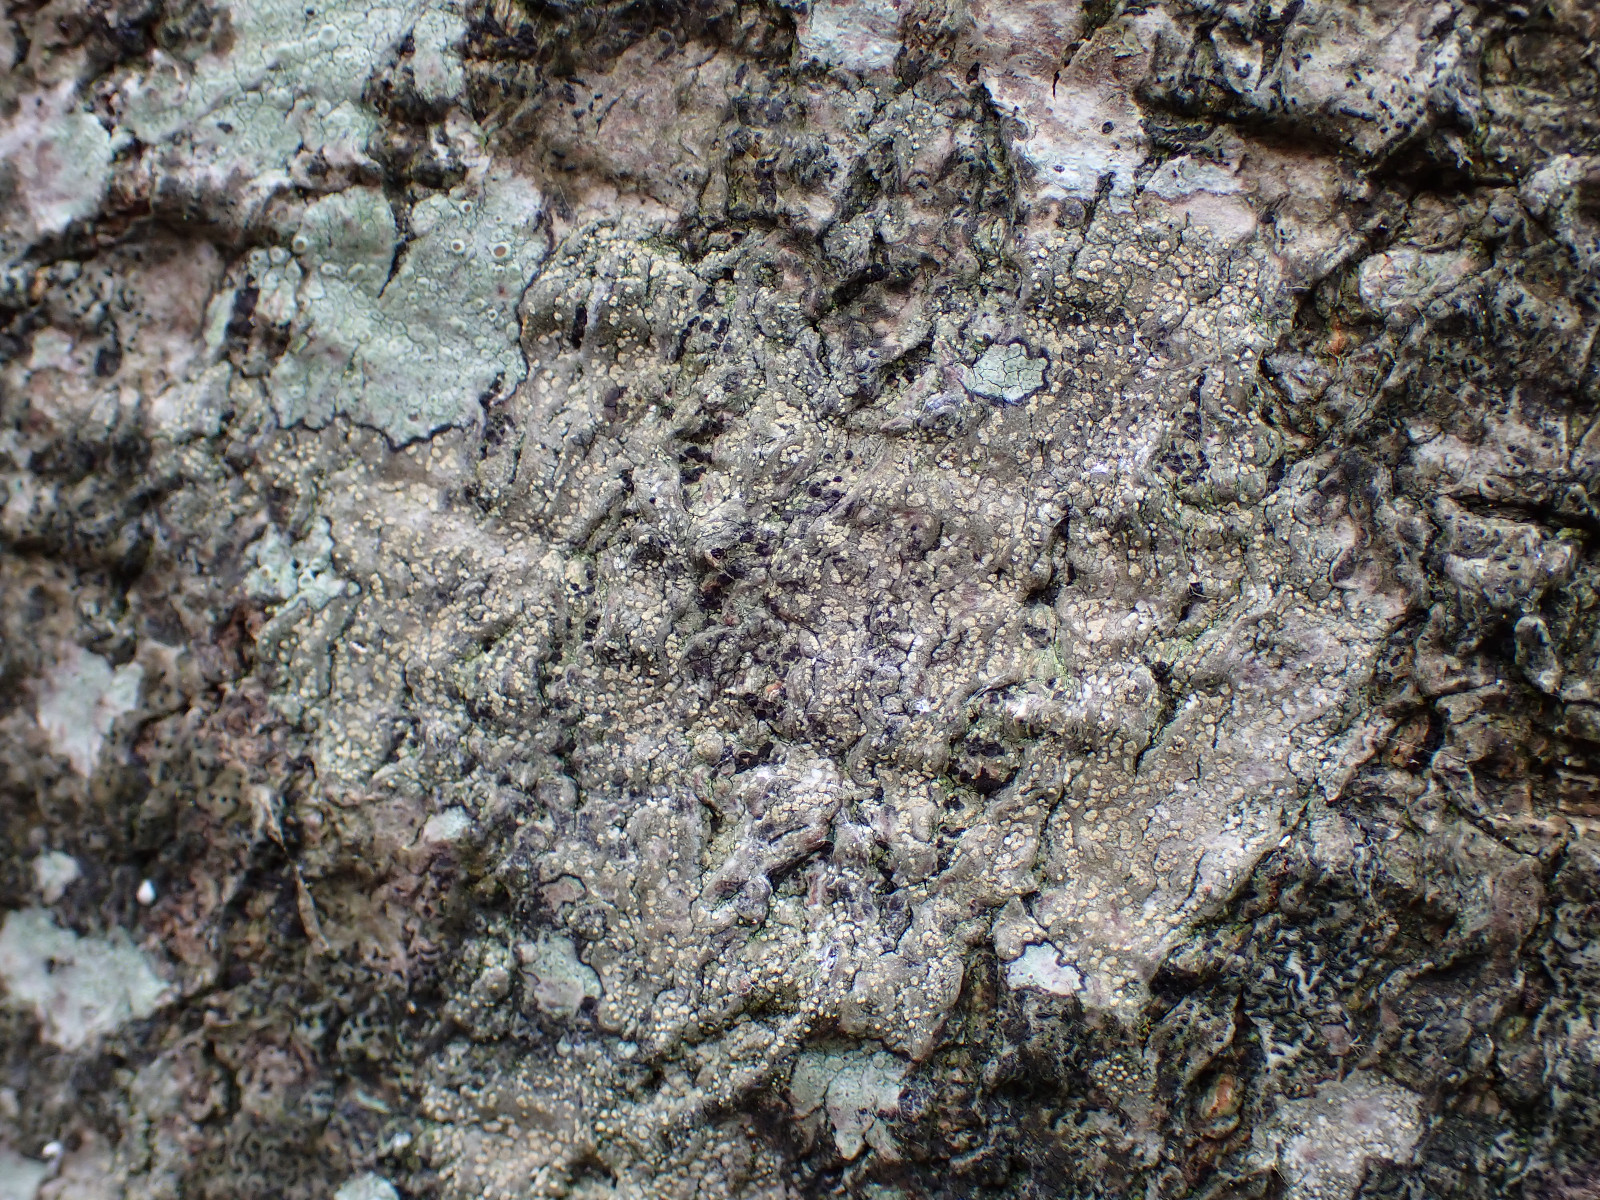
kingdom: Fungi
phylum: Ascomycota
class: Arthoniomycetes
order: Arthoniales
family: Roccellaceae
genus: Dendrographa
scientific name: Dendrographa decolorans
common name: forskelligfarvet skurvelav
